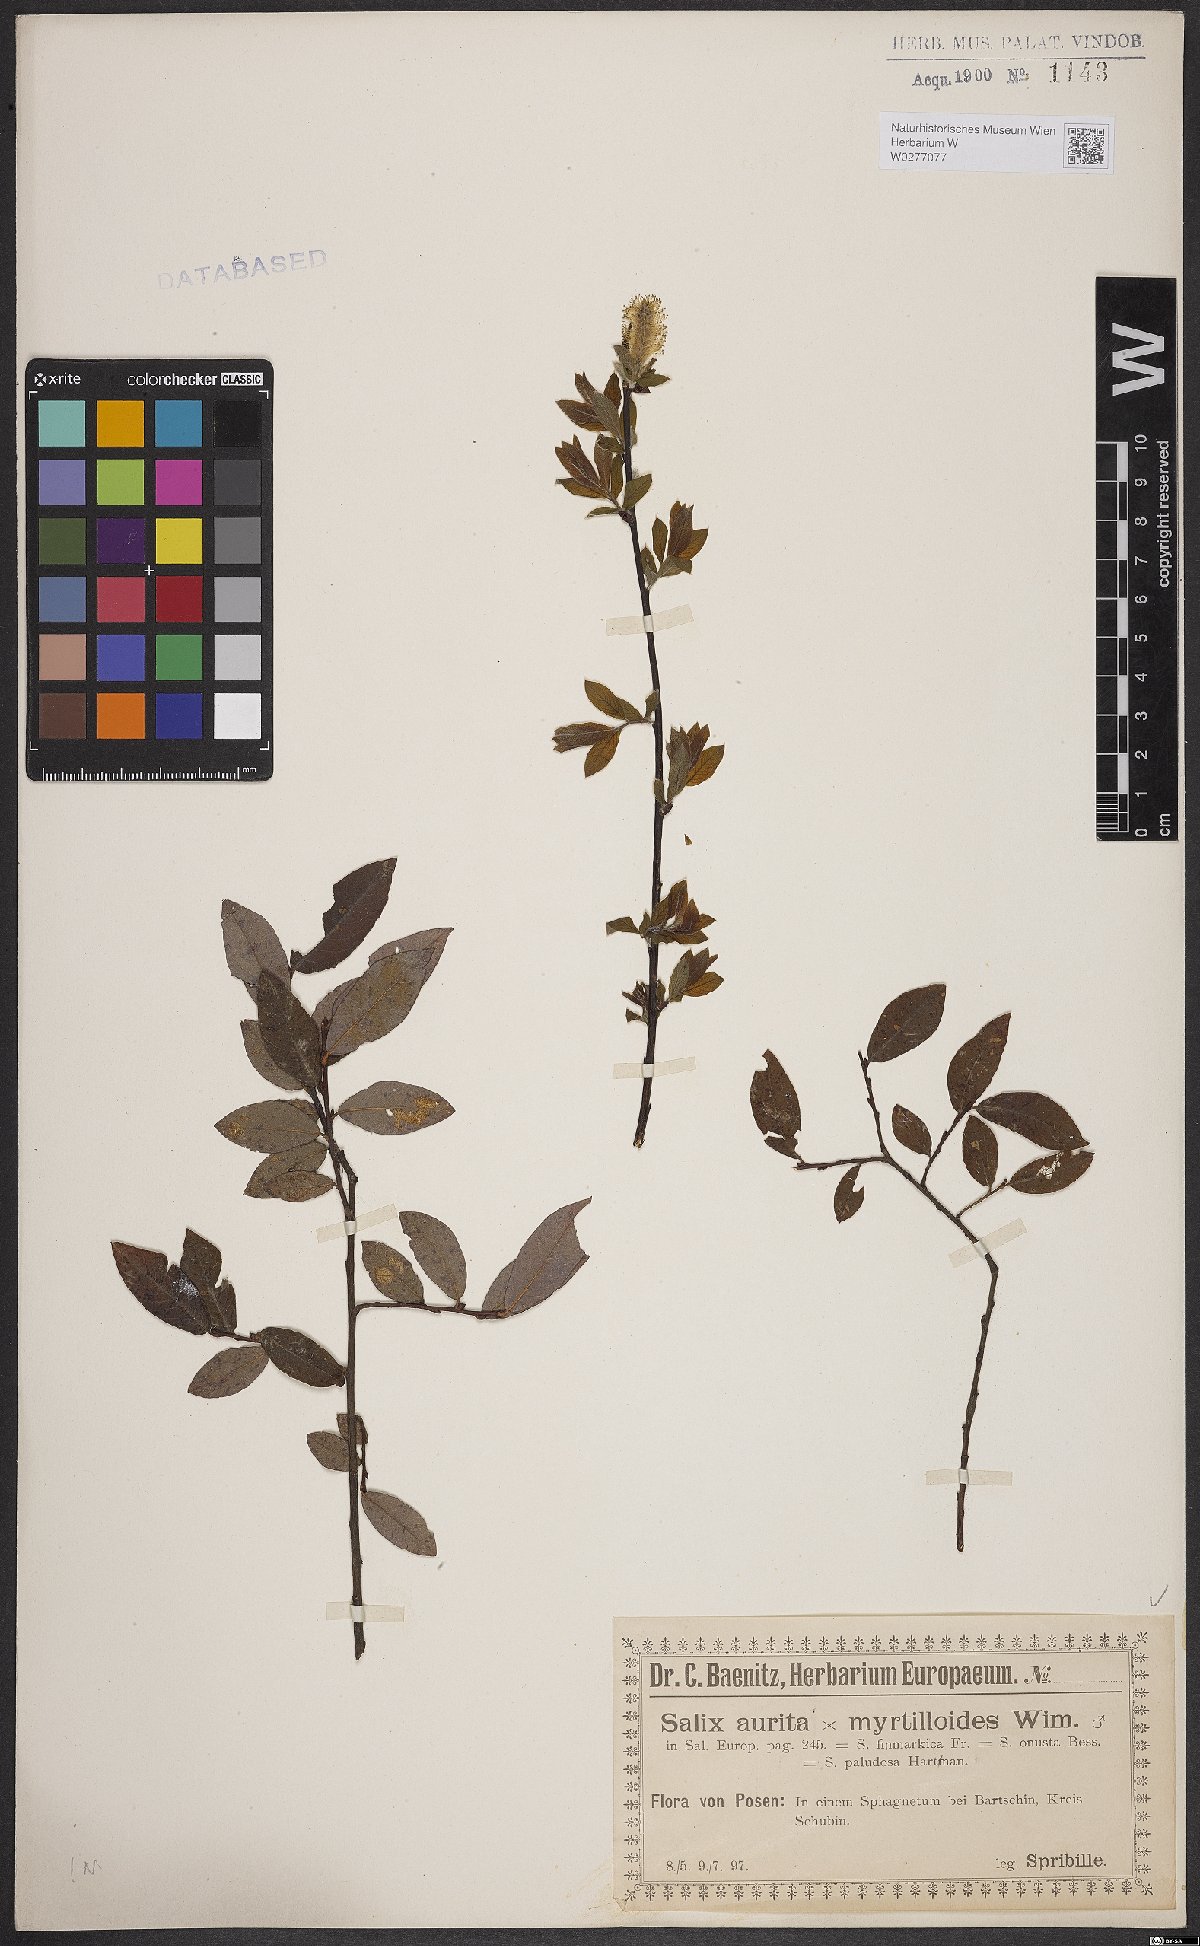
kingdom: Plantae
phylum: Tracheophyta
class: Magnoliopsida
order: Malpighiales
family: Salicaceae
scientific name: Salicaceae
